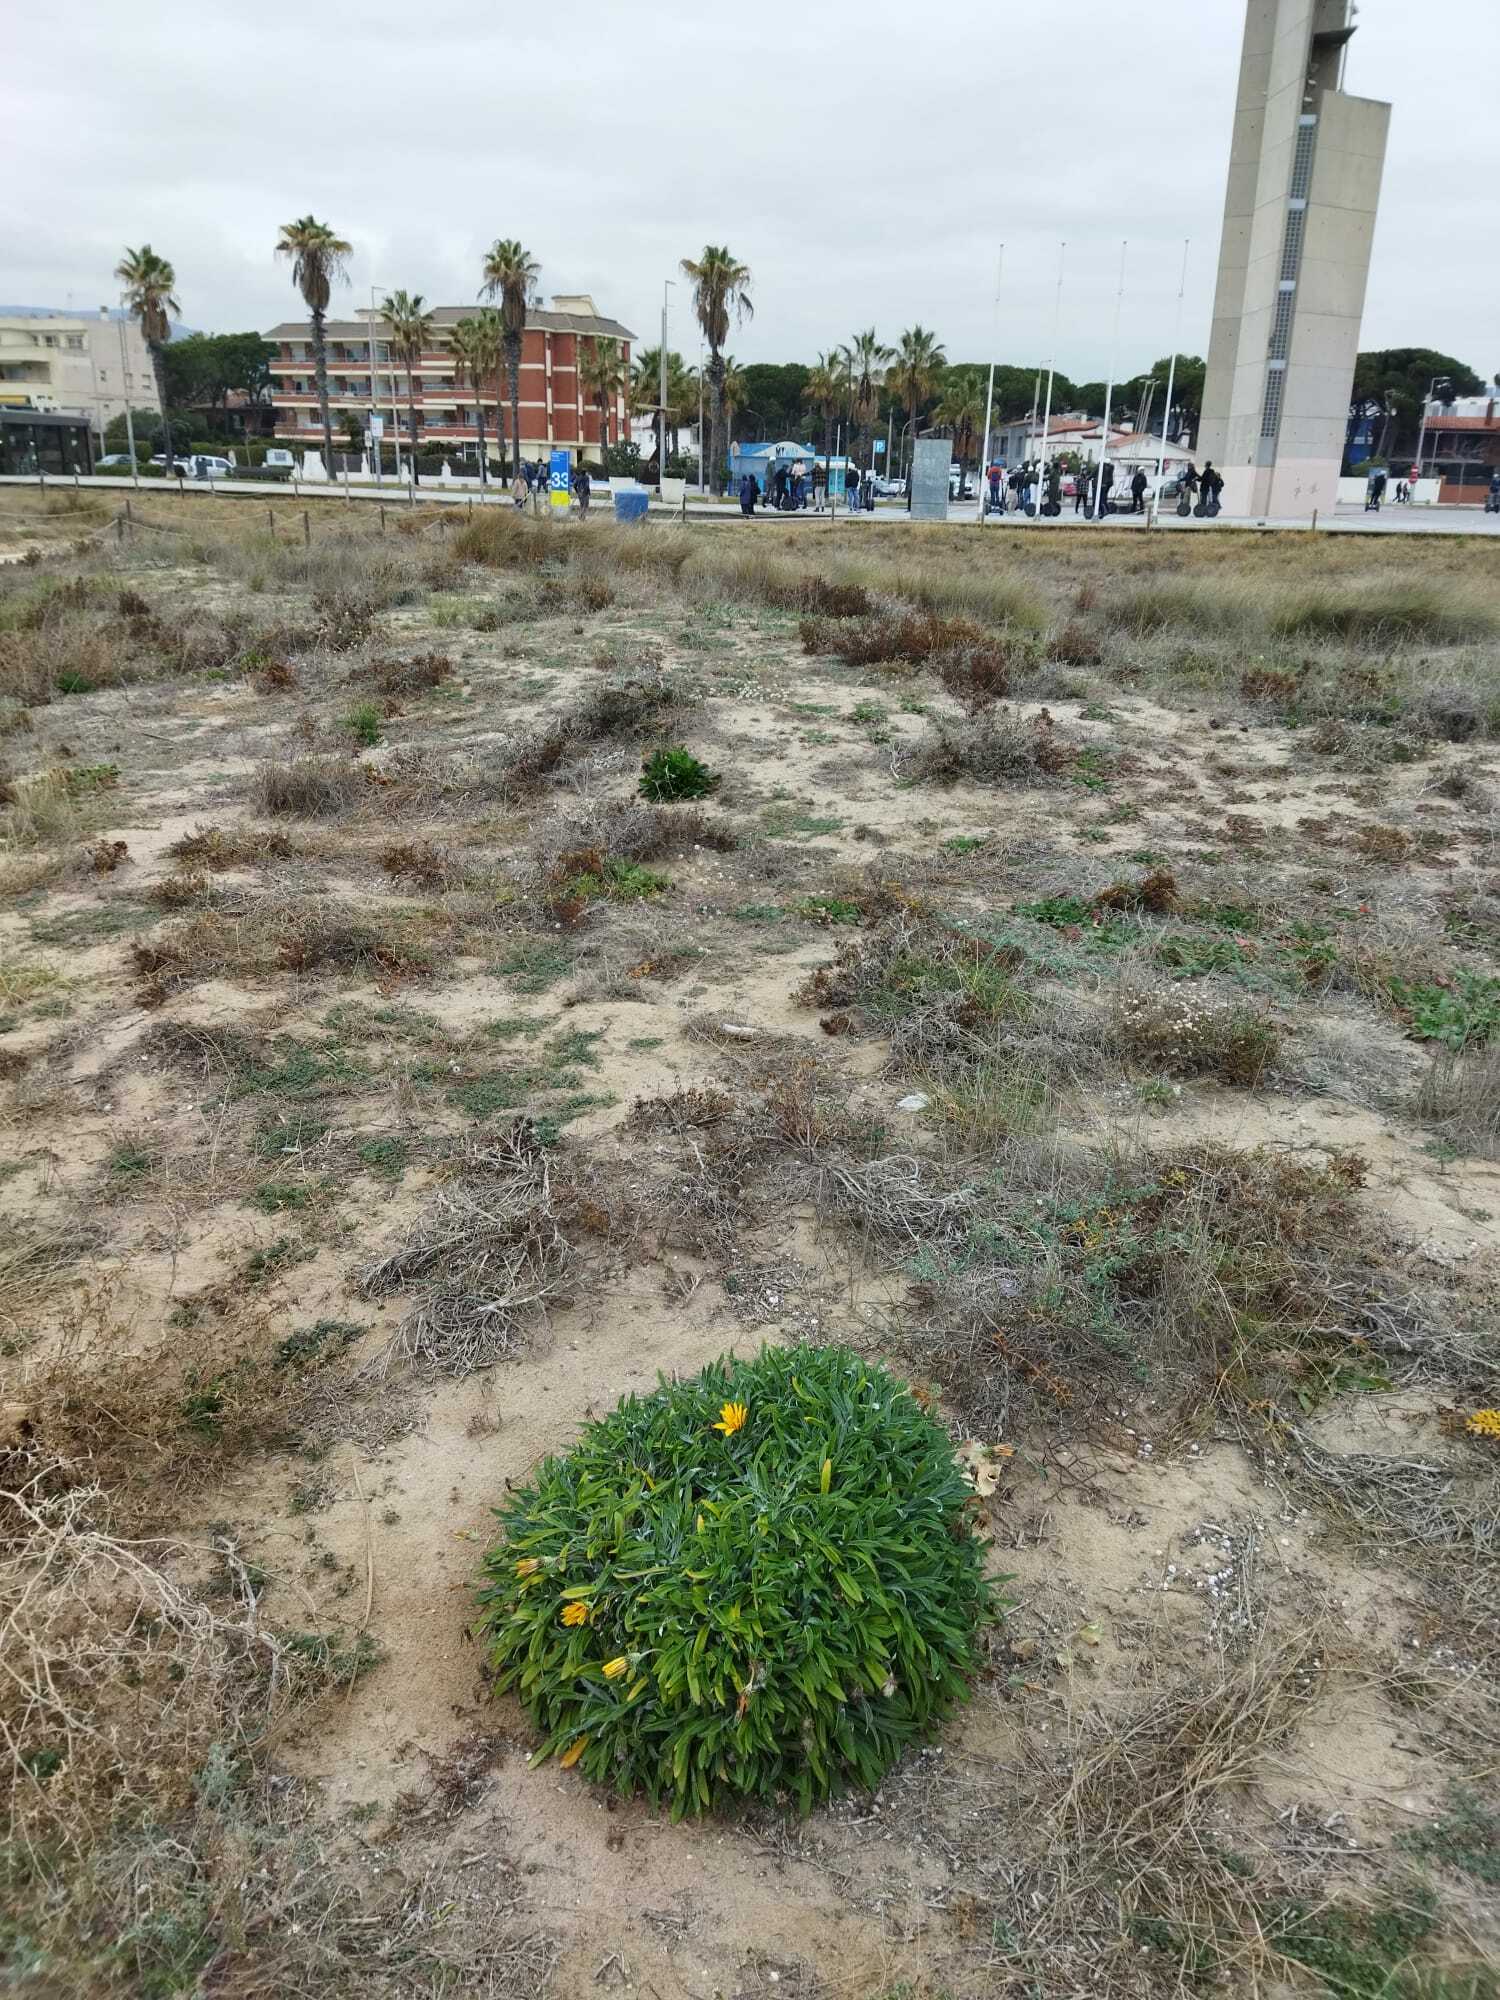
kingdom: Plantae
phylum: Tracheophyta
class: Magnoliopsida
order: Asterales
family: Asteraceae
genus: Gazania
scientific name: Gazania rigens
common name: Treasureflower
